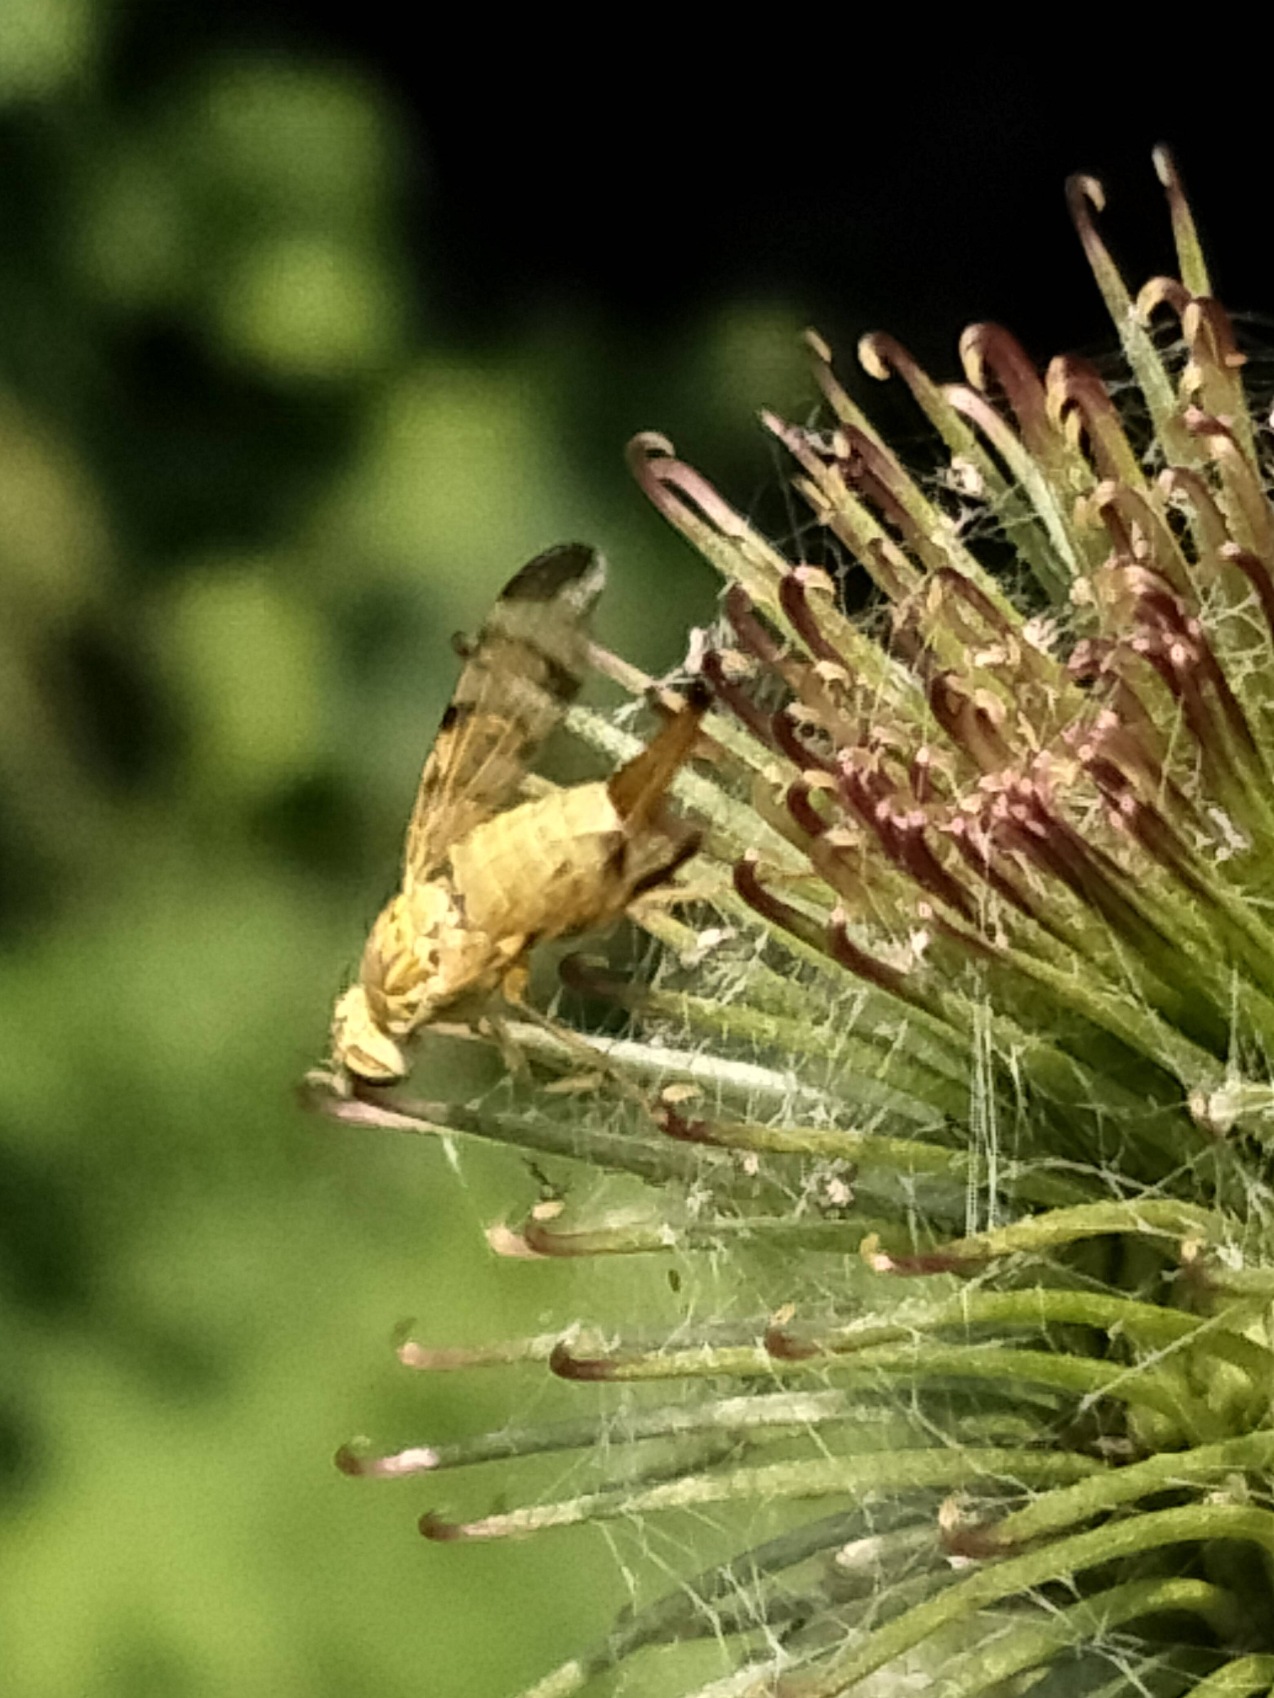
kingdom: Animalia
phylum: Arthropoda
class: Insecta
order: Diptera
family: Tephritidae
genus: Terellia
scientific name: Terellia tussilaginis
